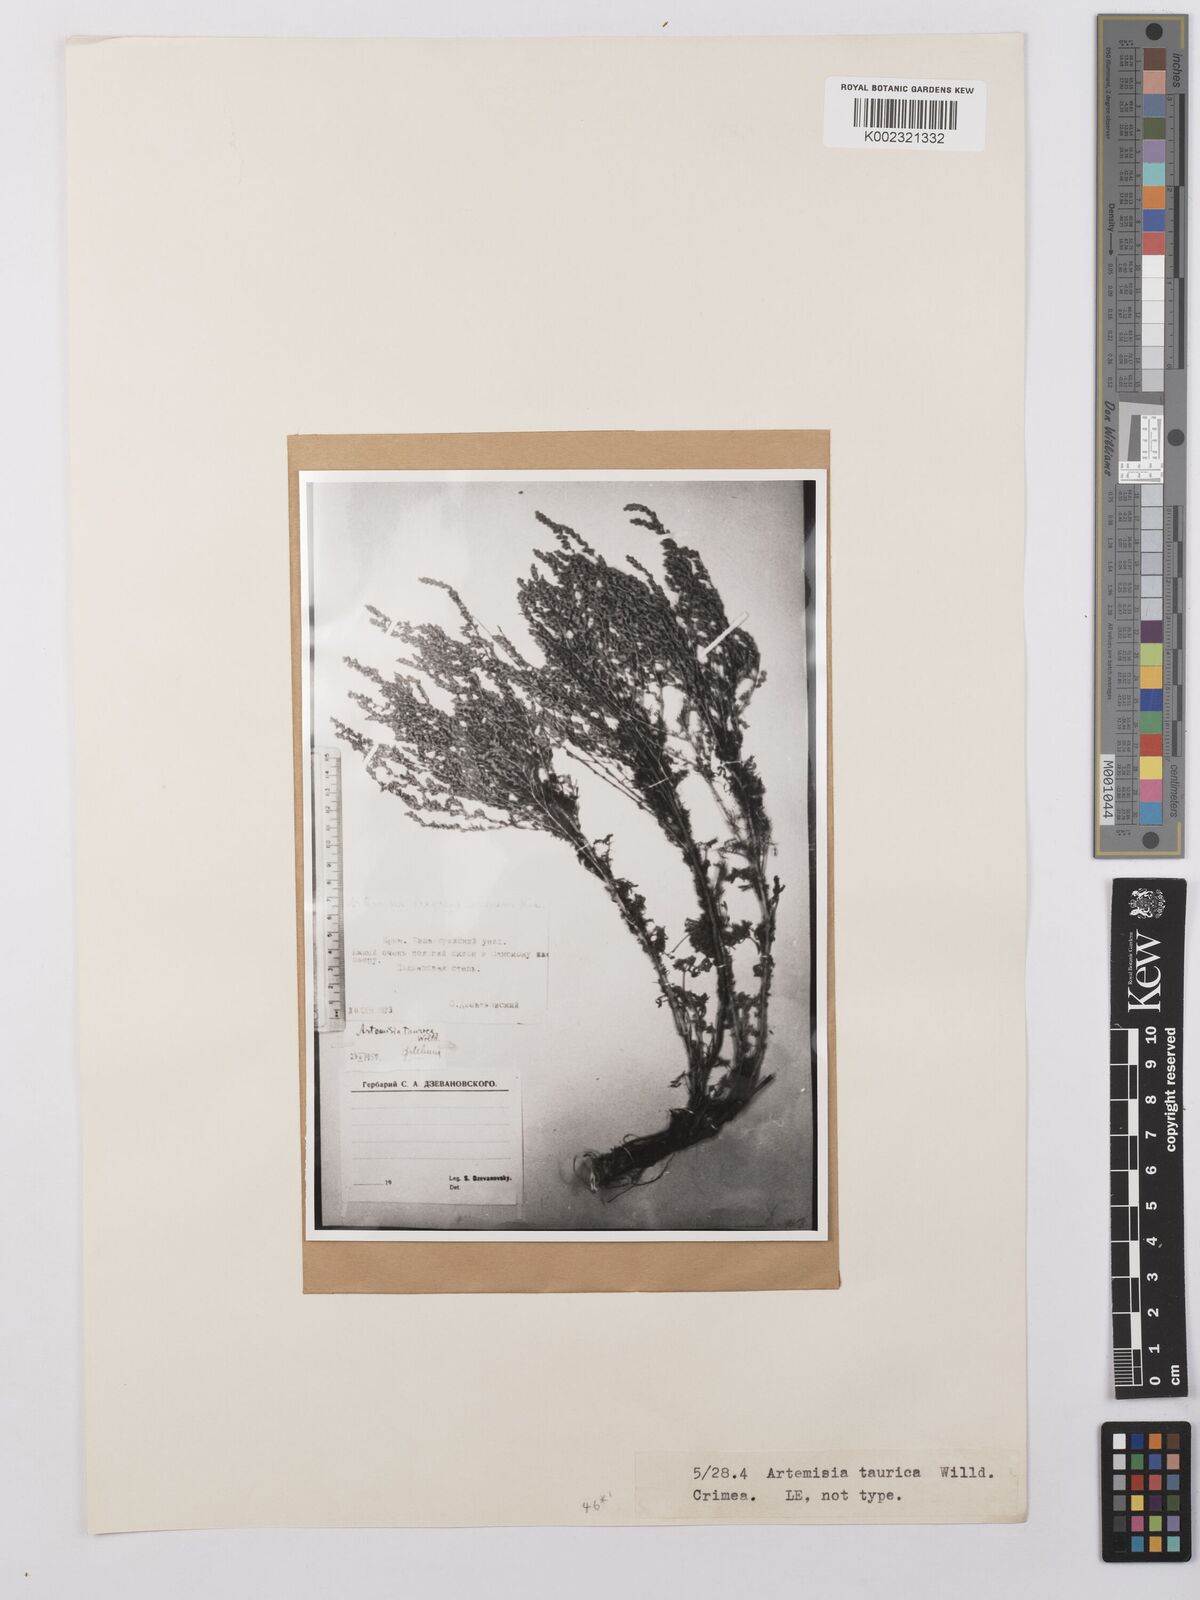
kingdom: Plantae
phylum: Tracheophyta
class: Magnoliopsida
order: Asterales
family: Asteraceae
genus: Artemisia
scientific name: Artemisia taurica
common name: Tauric wormwood
